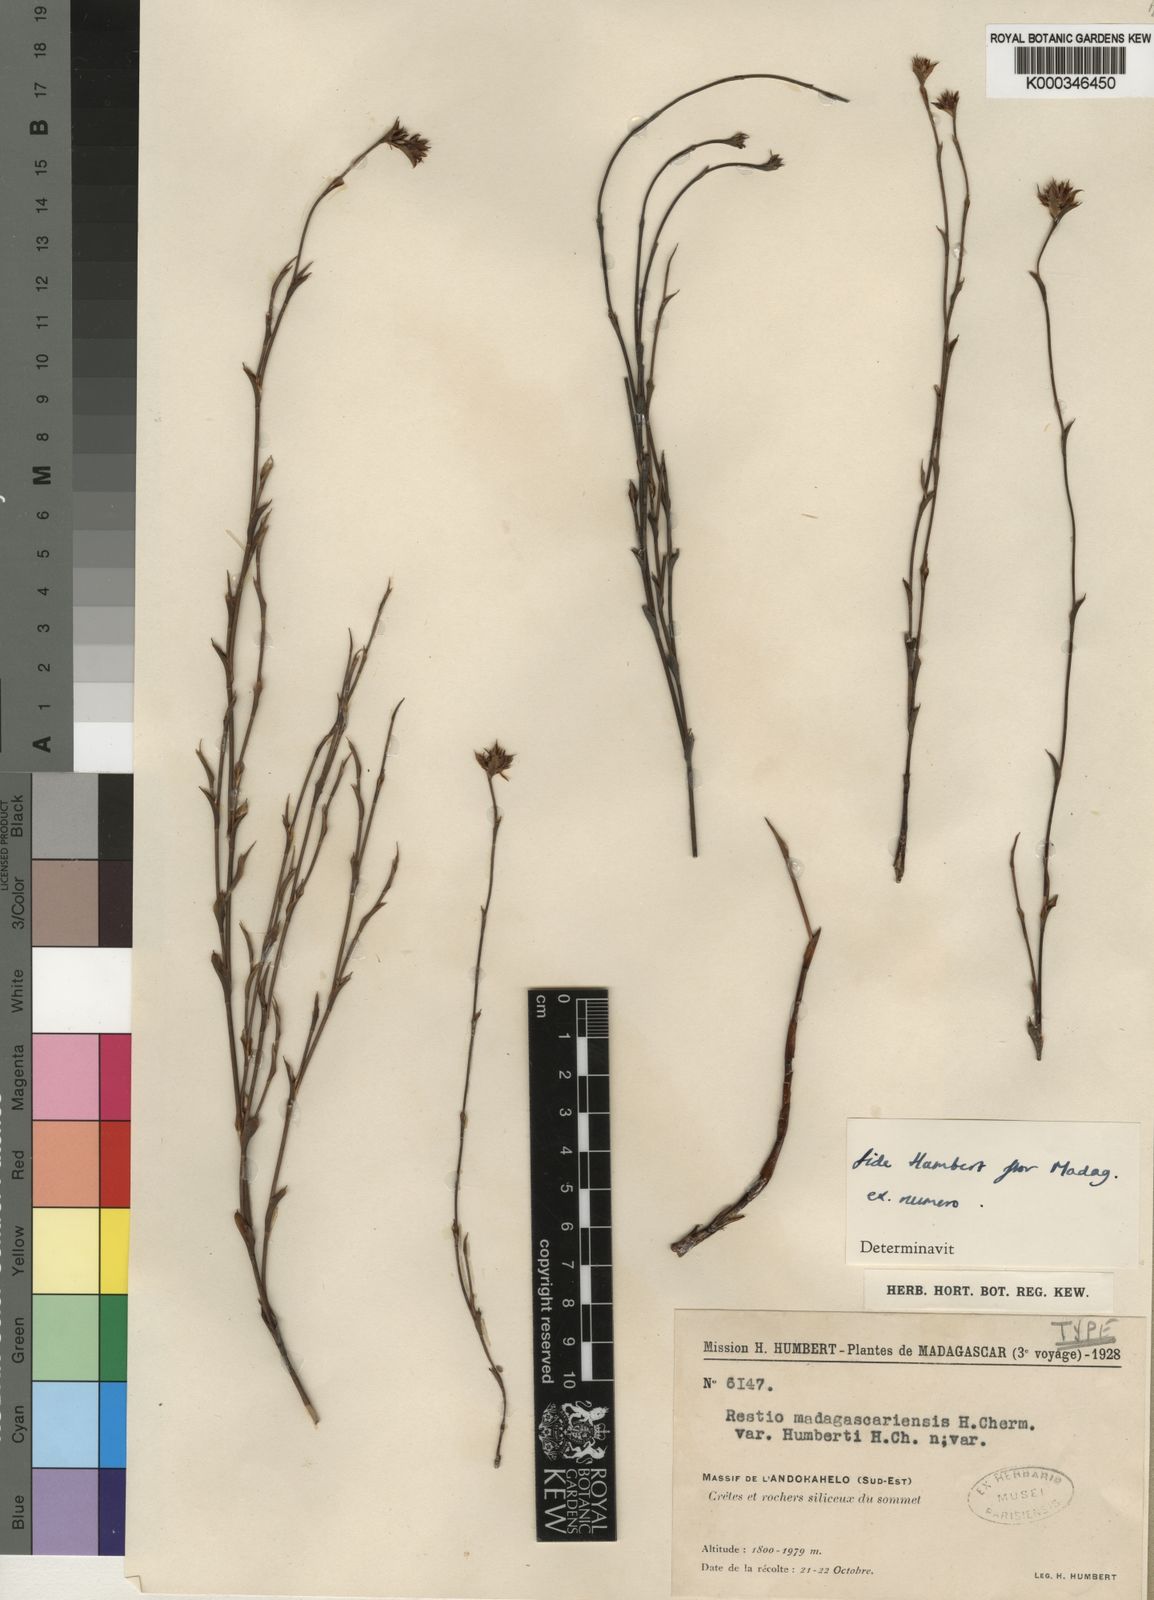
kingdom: Plantae
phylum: Tracheophyta
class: Liliopsida
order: Poales
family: Restionaceae
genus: Platycaulos
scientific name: Platycaulos mahonii
